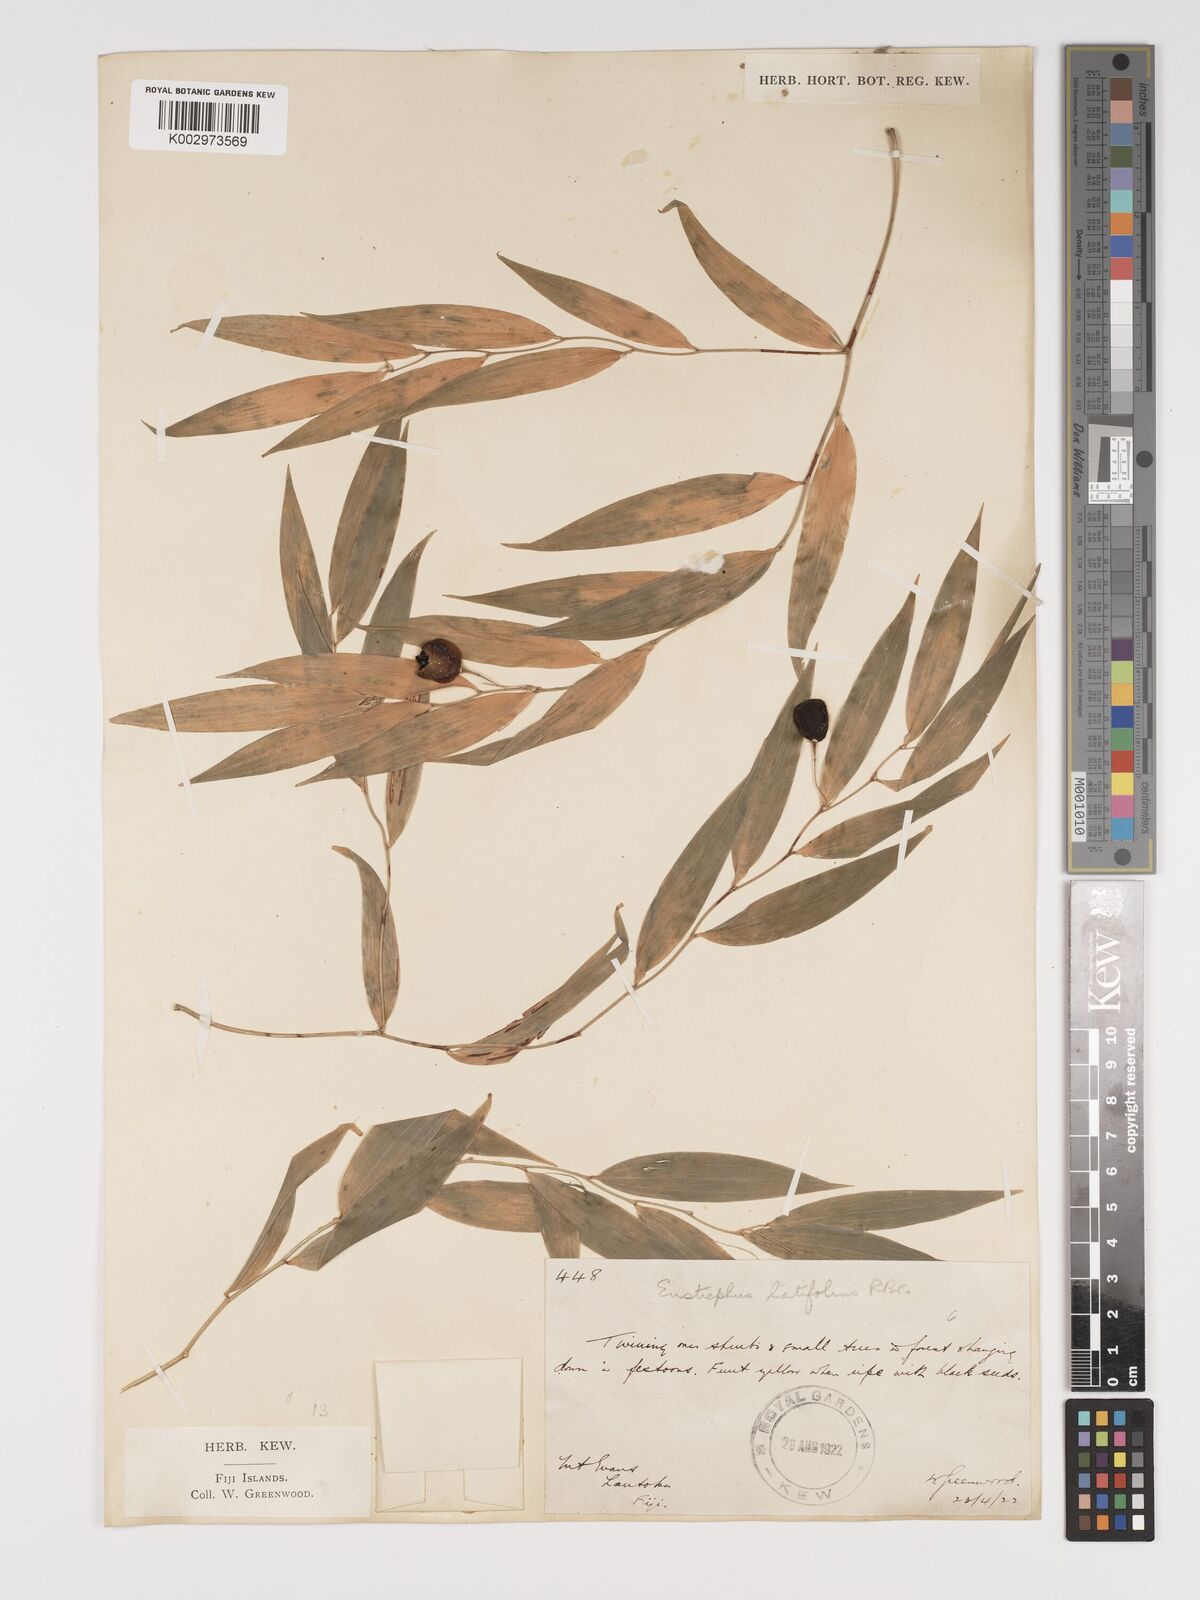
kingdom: Plantae
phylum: Tracheophyta
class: Liliopsida
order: Asparagales
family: Asparagaceae
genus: Eustrephus
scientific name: Eustrephus latifolius
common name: Orangevine
